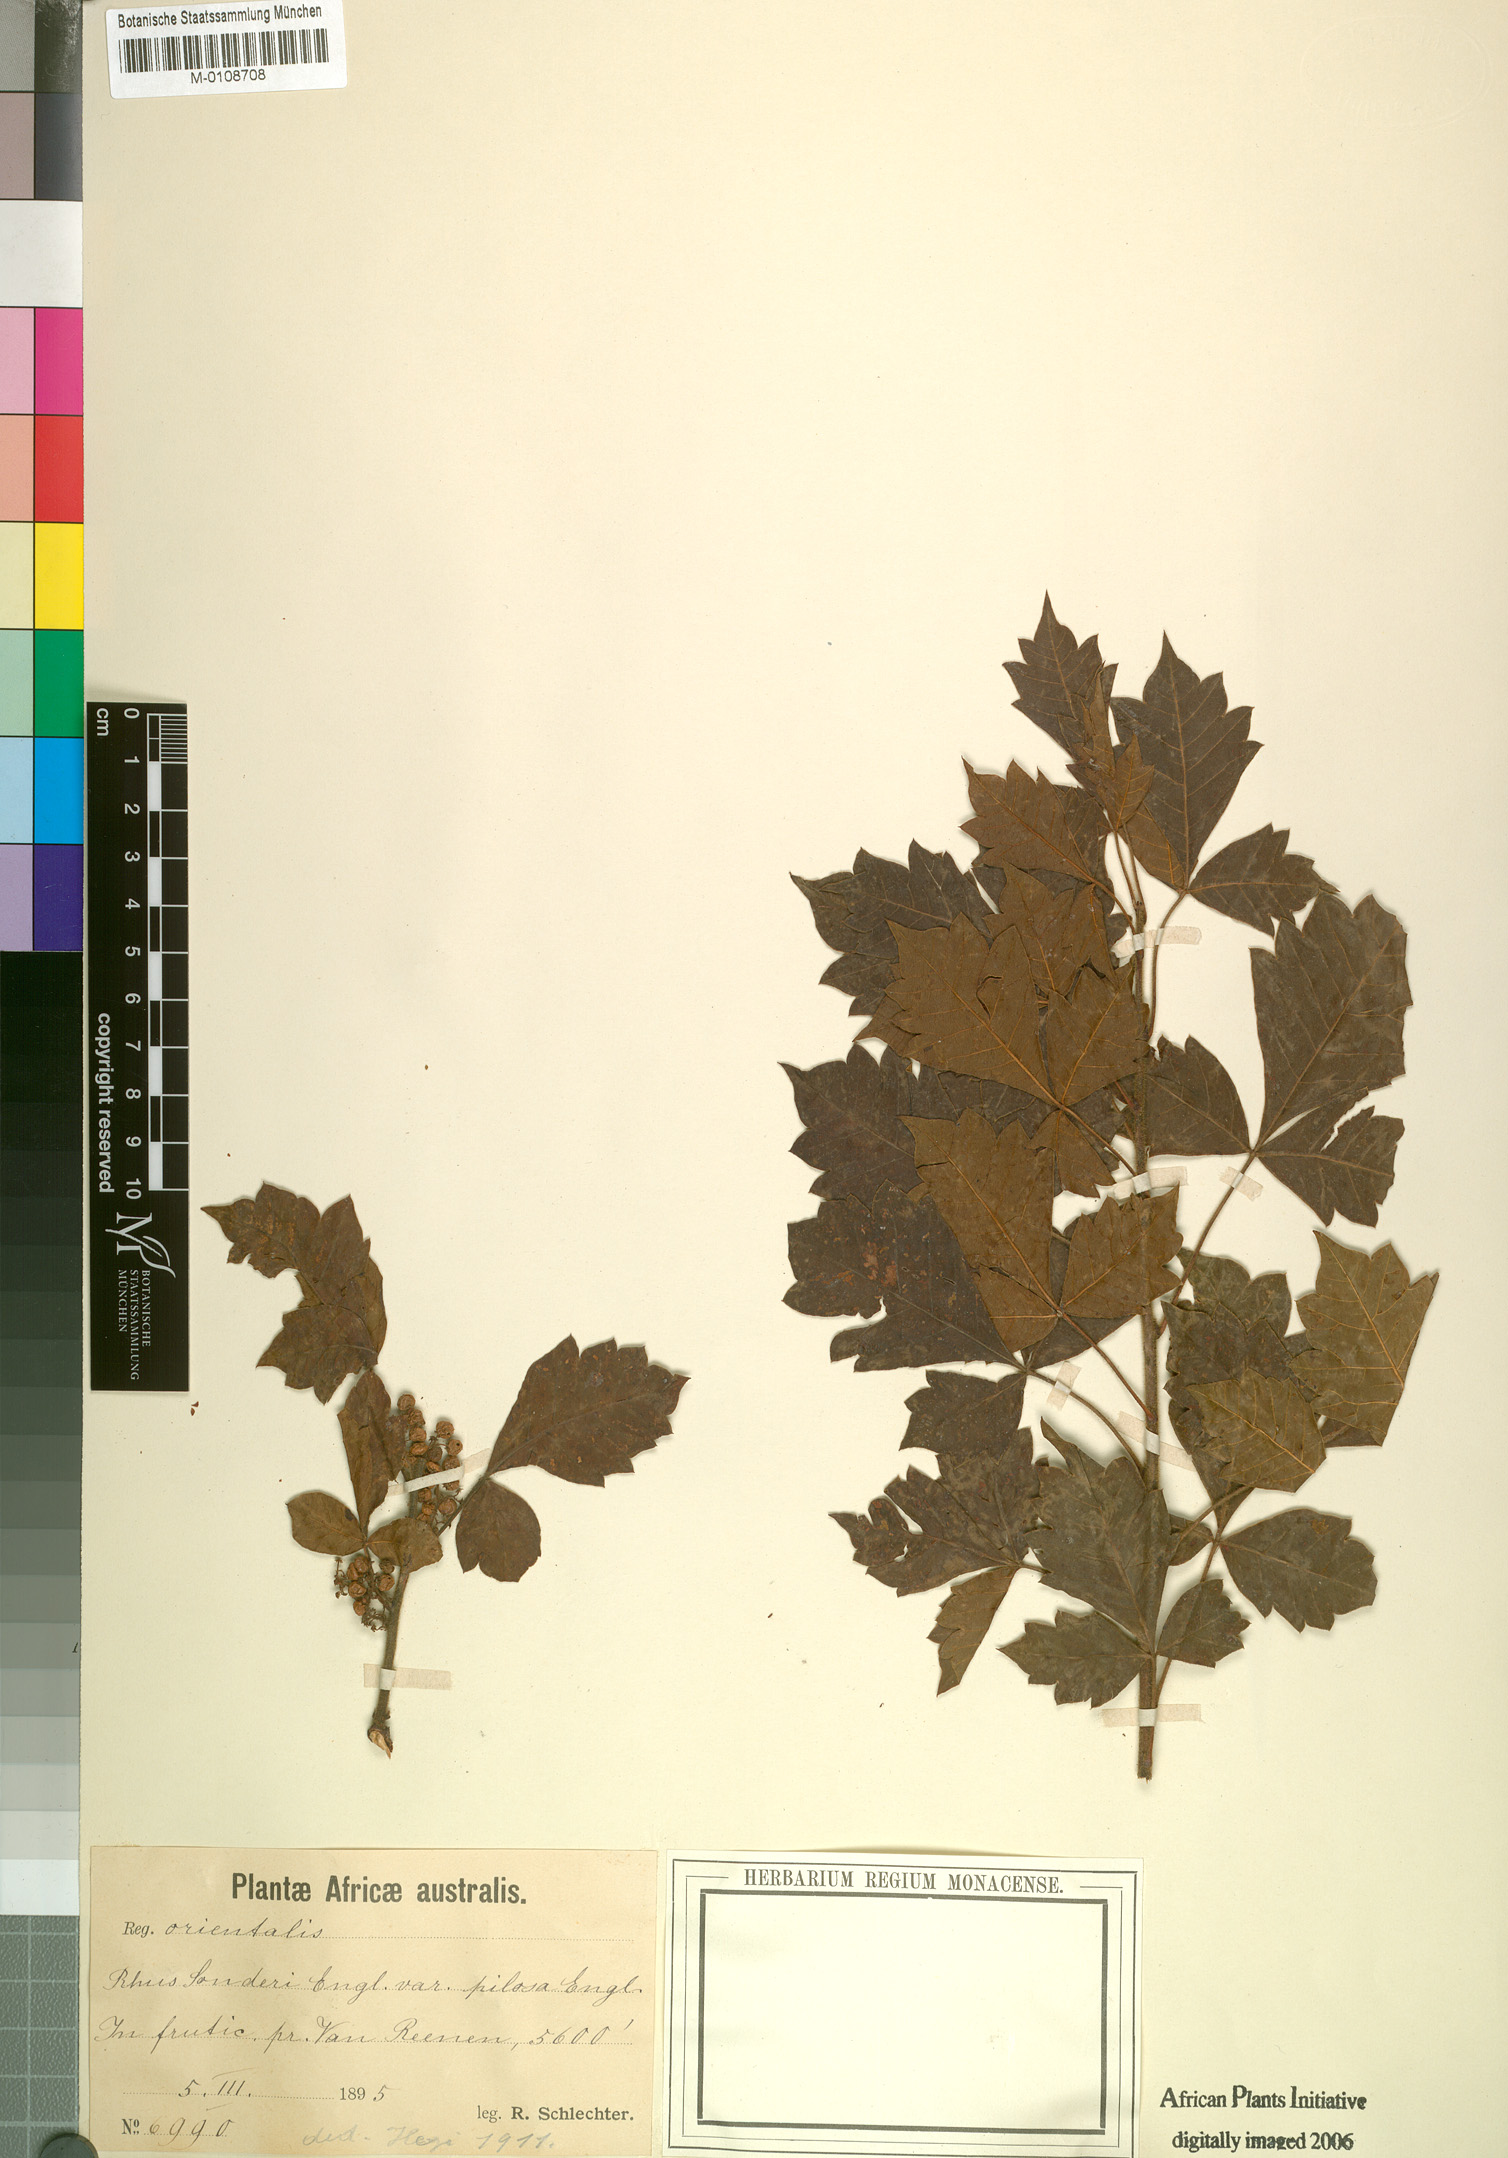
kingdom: Plantae
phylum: Tracheophyta
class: Magnoliopsida
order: Sapindales
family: Anacardiaceae
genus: Searsia
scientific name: Searsia dentata
